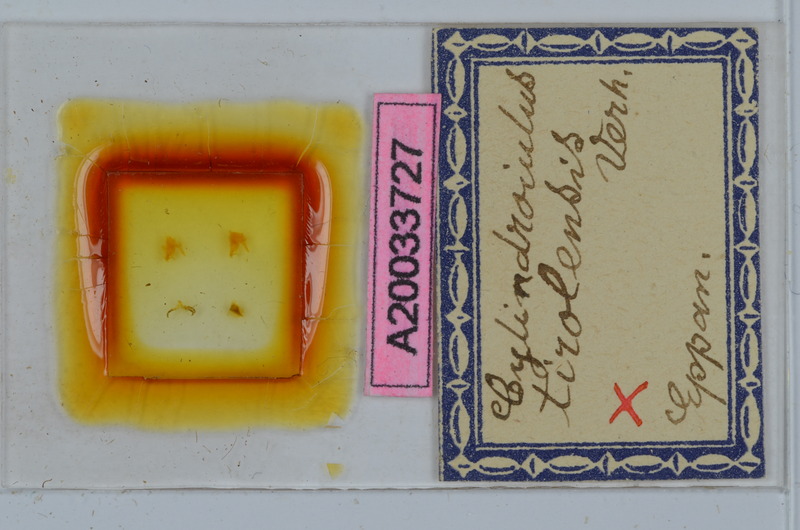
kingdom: Animalia
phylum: Arthropoda
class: Diplopoda
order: Julida
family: Julidae
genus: Cylindroiulus
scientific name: Cylindroiulus tirolensis
